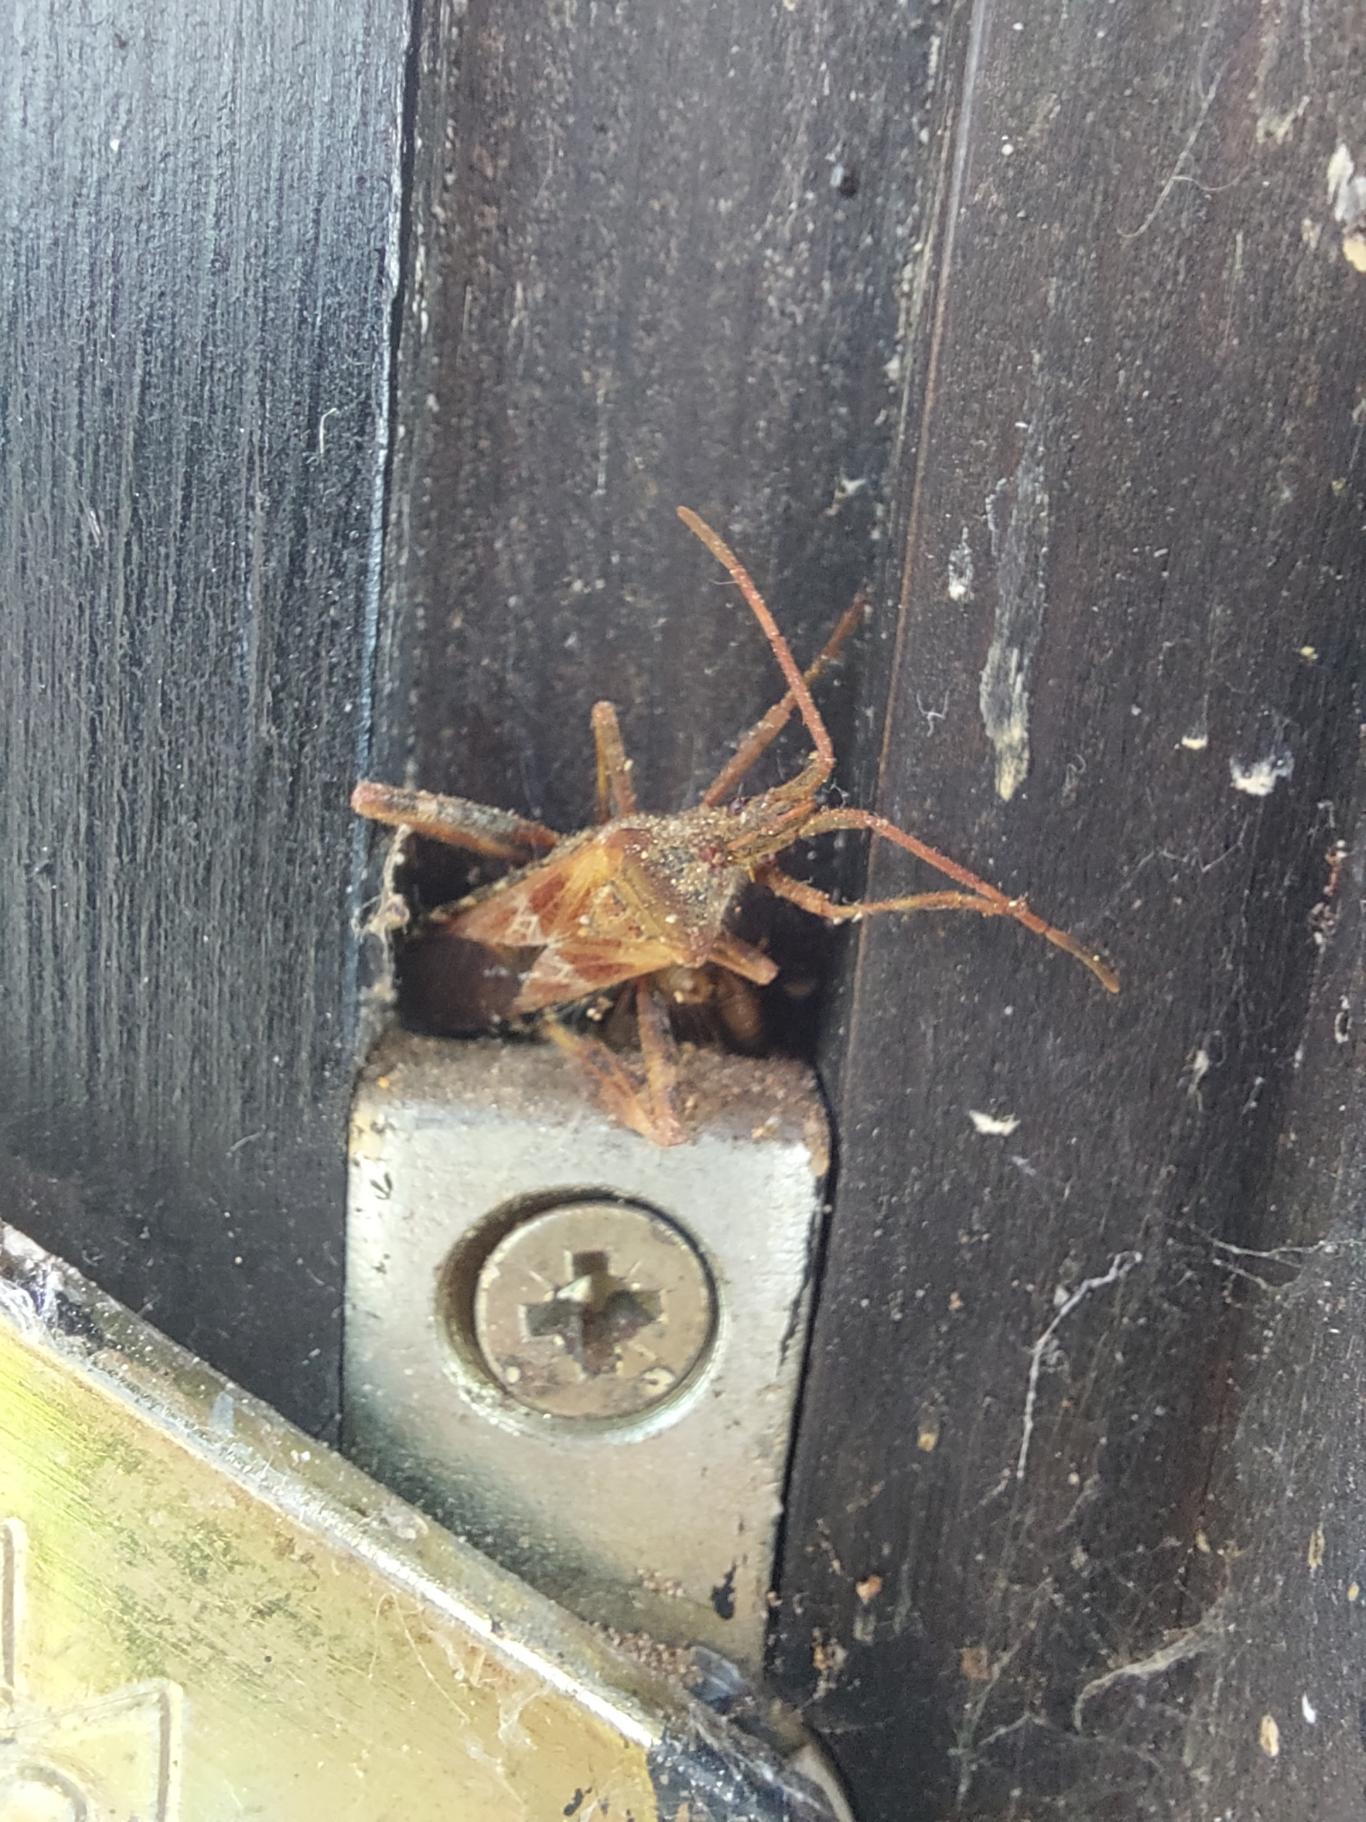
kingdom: Animalia
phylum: Arthropoda
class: Insecta
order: Hemiptera
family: Coreidae
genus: Leptoglossus
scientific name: Leptoglossus occidentalis
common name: Amerikansk fyrretæge
